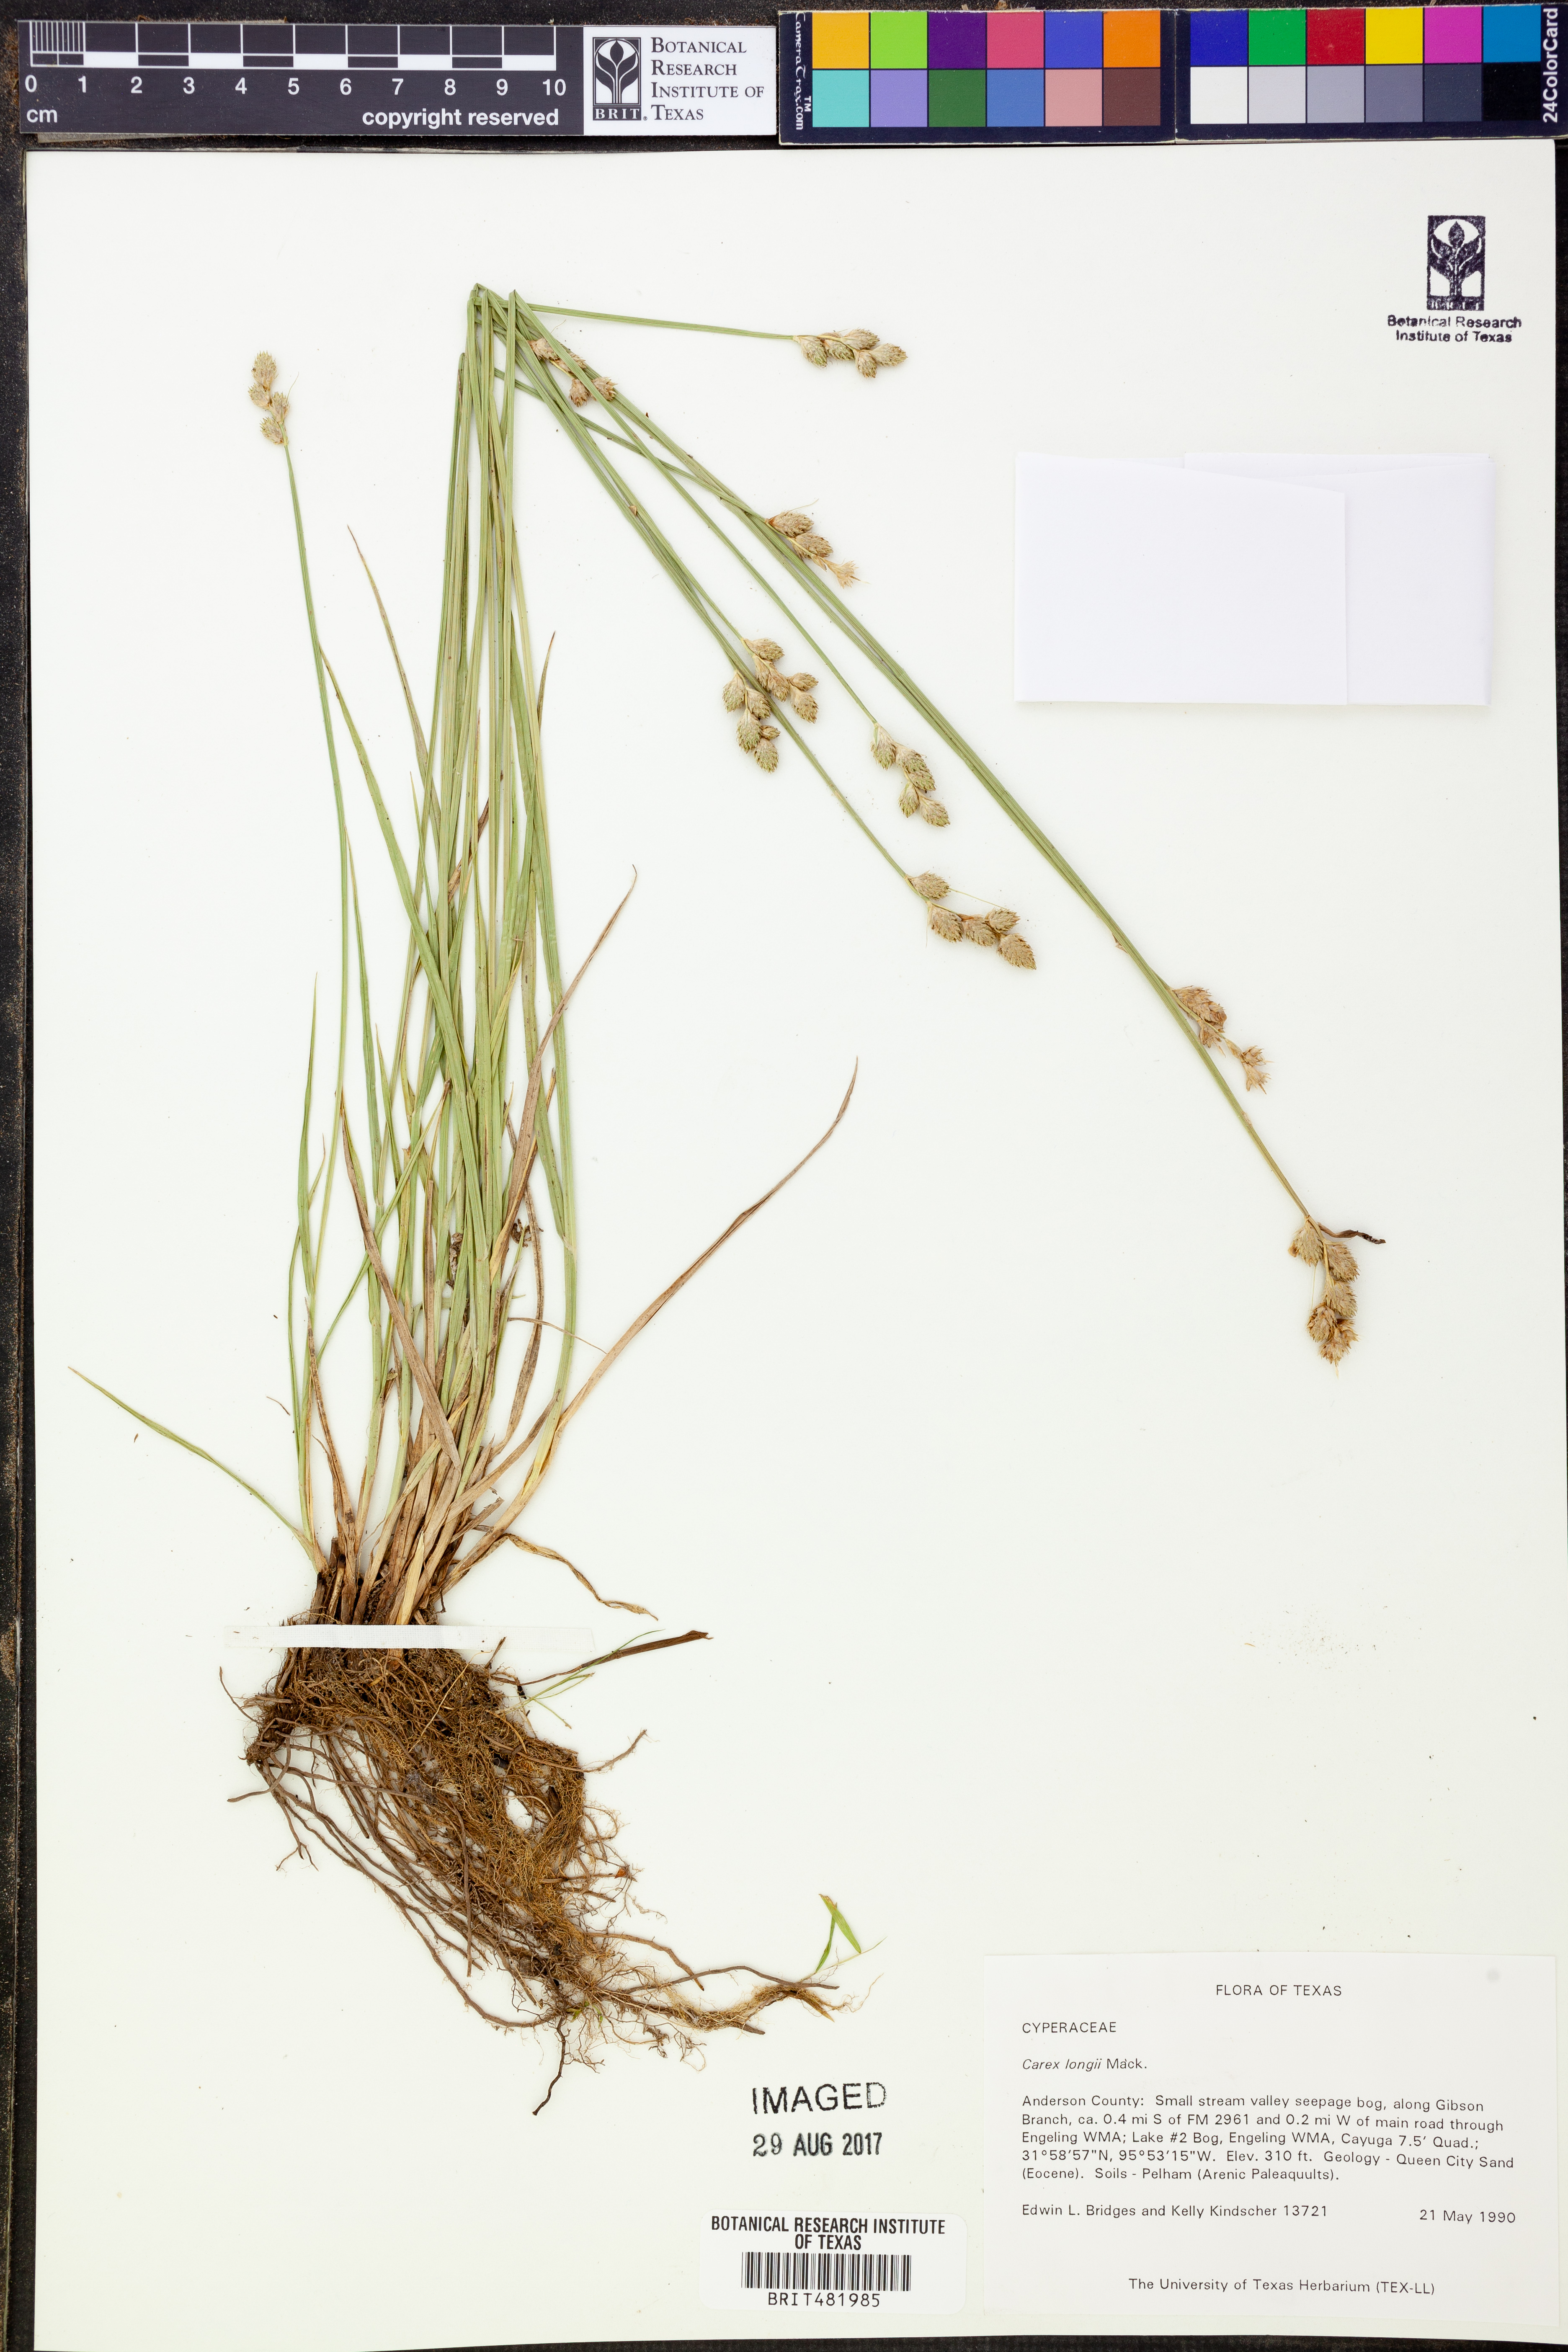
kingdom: Plantae
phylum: Tracheophyta
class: Liliopsida
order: Poales
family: Cyperaceae
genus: Carex
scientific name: Carex longii
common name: Long's sedge
